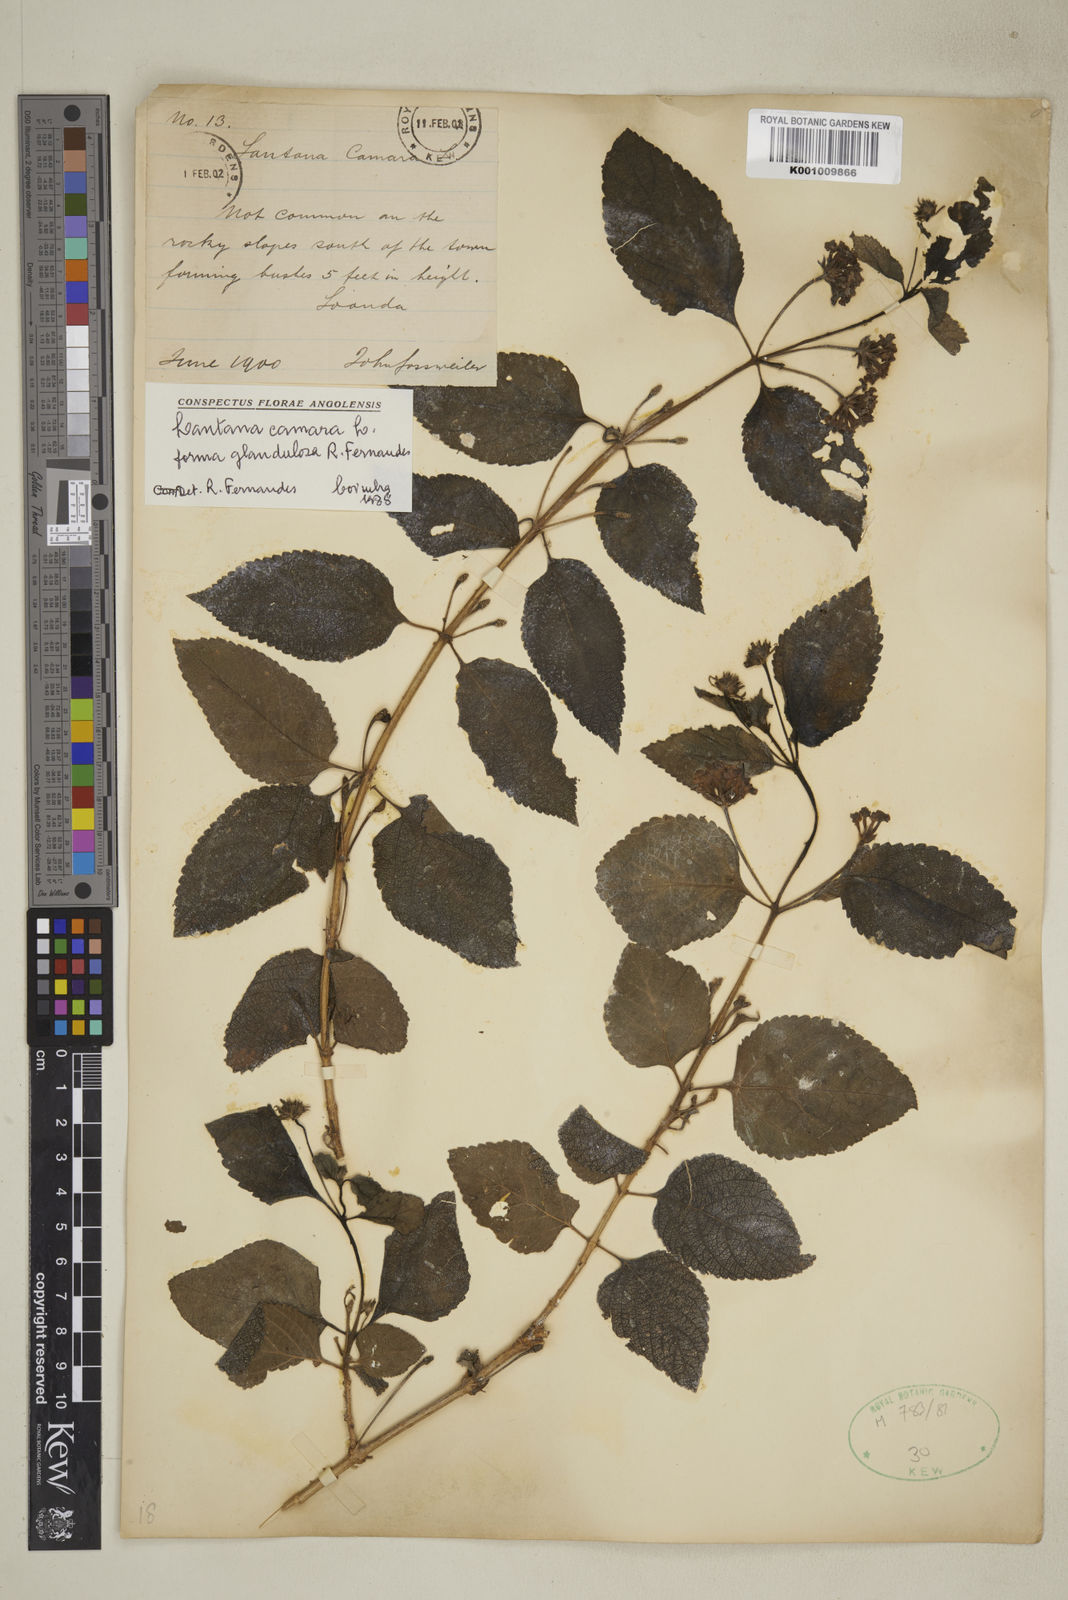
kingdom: Plantae
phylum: Tracheophyta
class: Magnoliopsida
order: Lamiales
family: Verbenaceae
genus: Lantana
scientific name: Lantana camara
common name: Lantana
